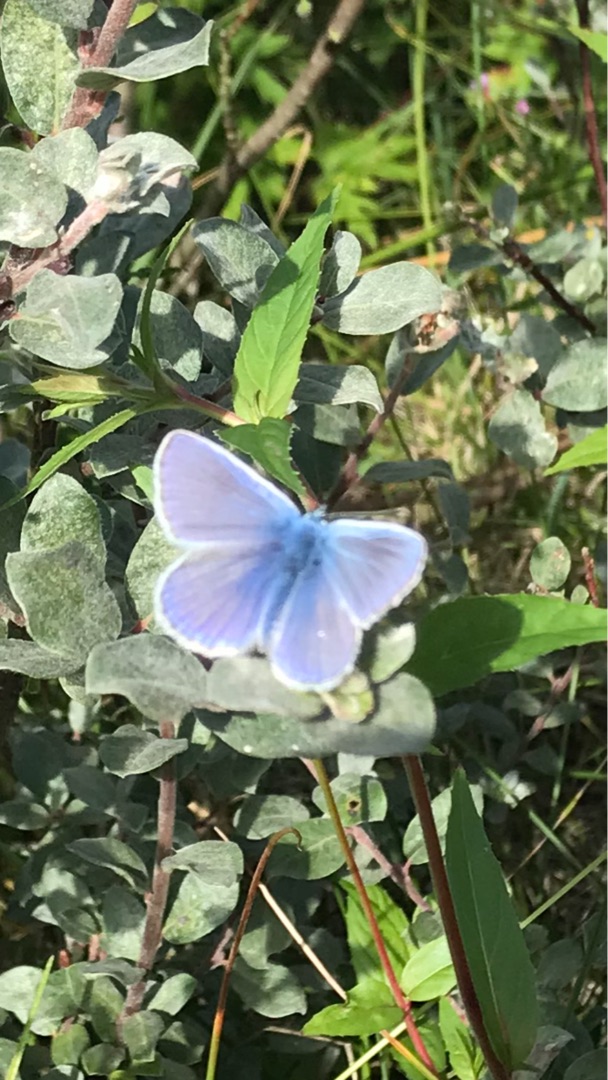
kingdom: Animalia
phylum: Arthropoda
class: Insecta
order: Lepidoptera
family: Lycaenidae
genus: Polyommatus
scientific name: Polyommatus icarus
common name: Almindelig blåfugl
